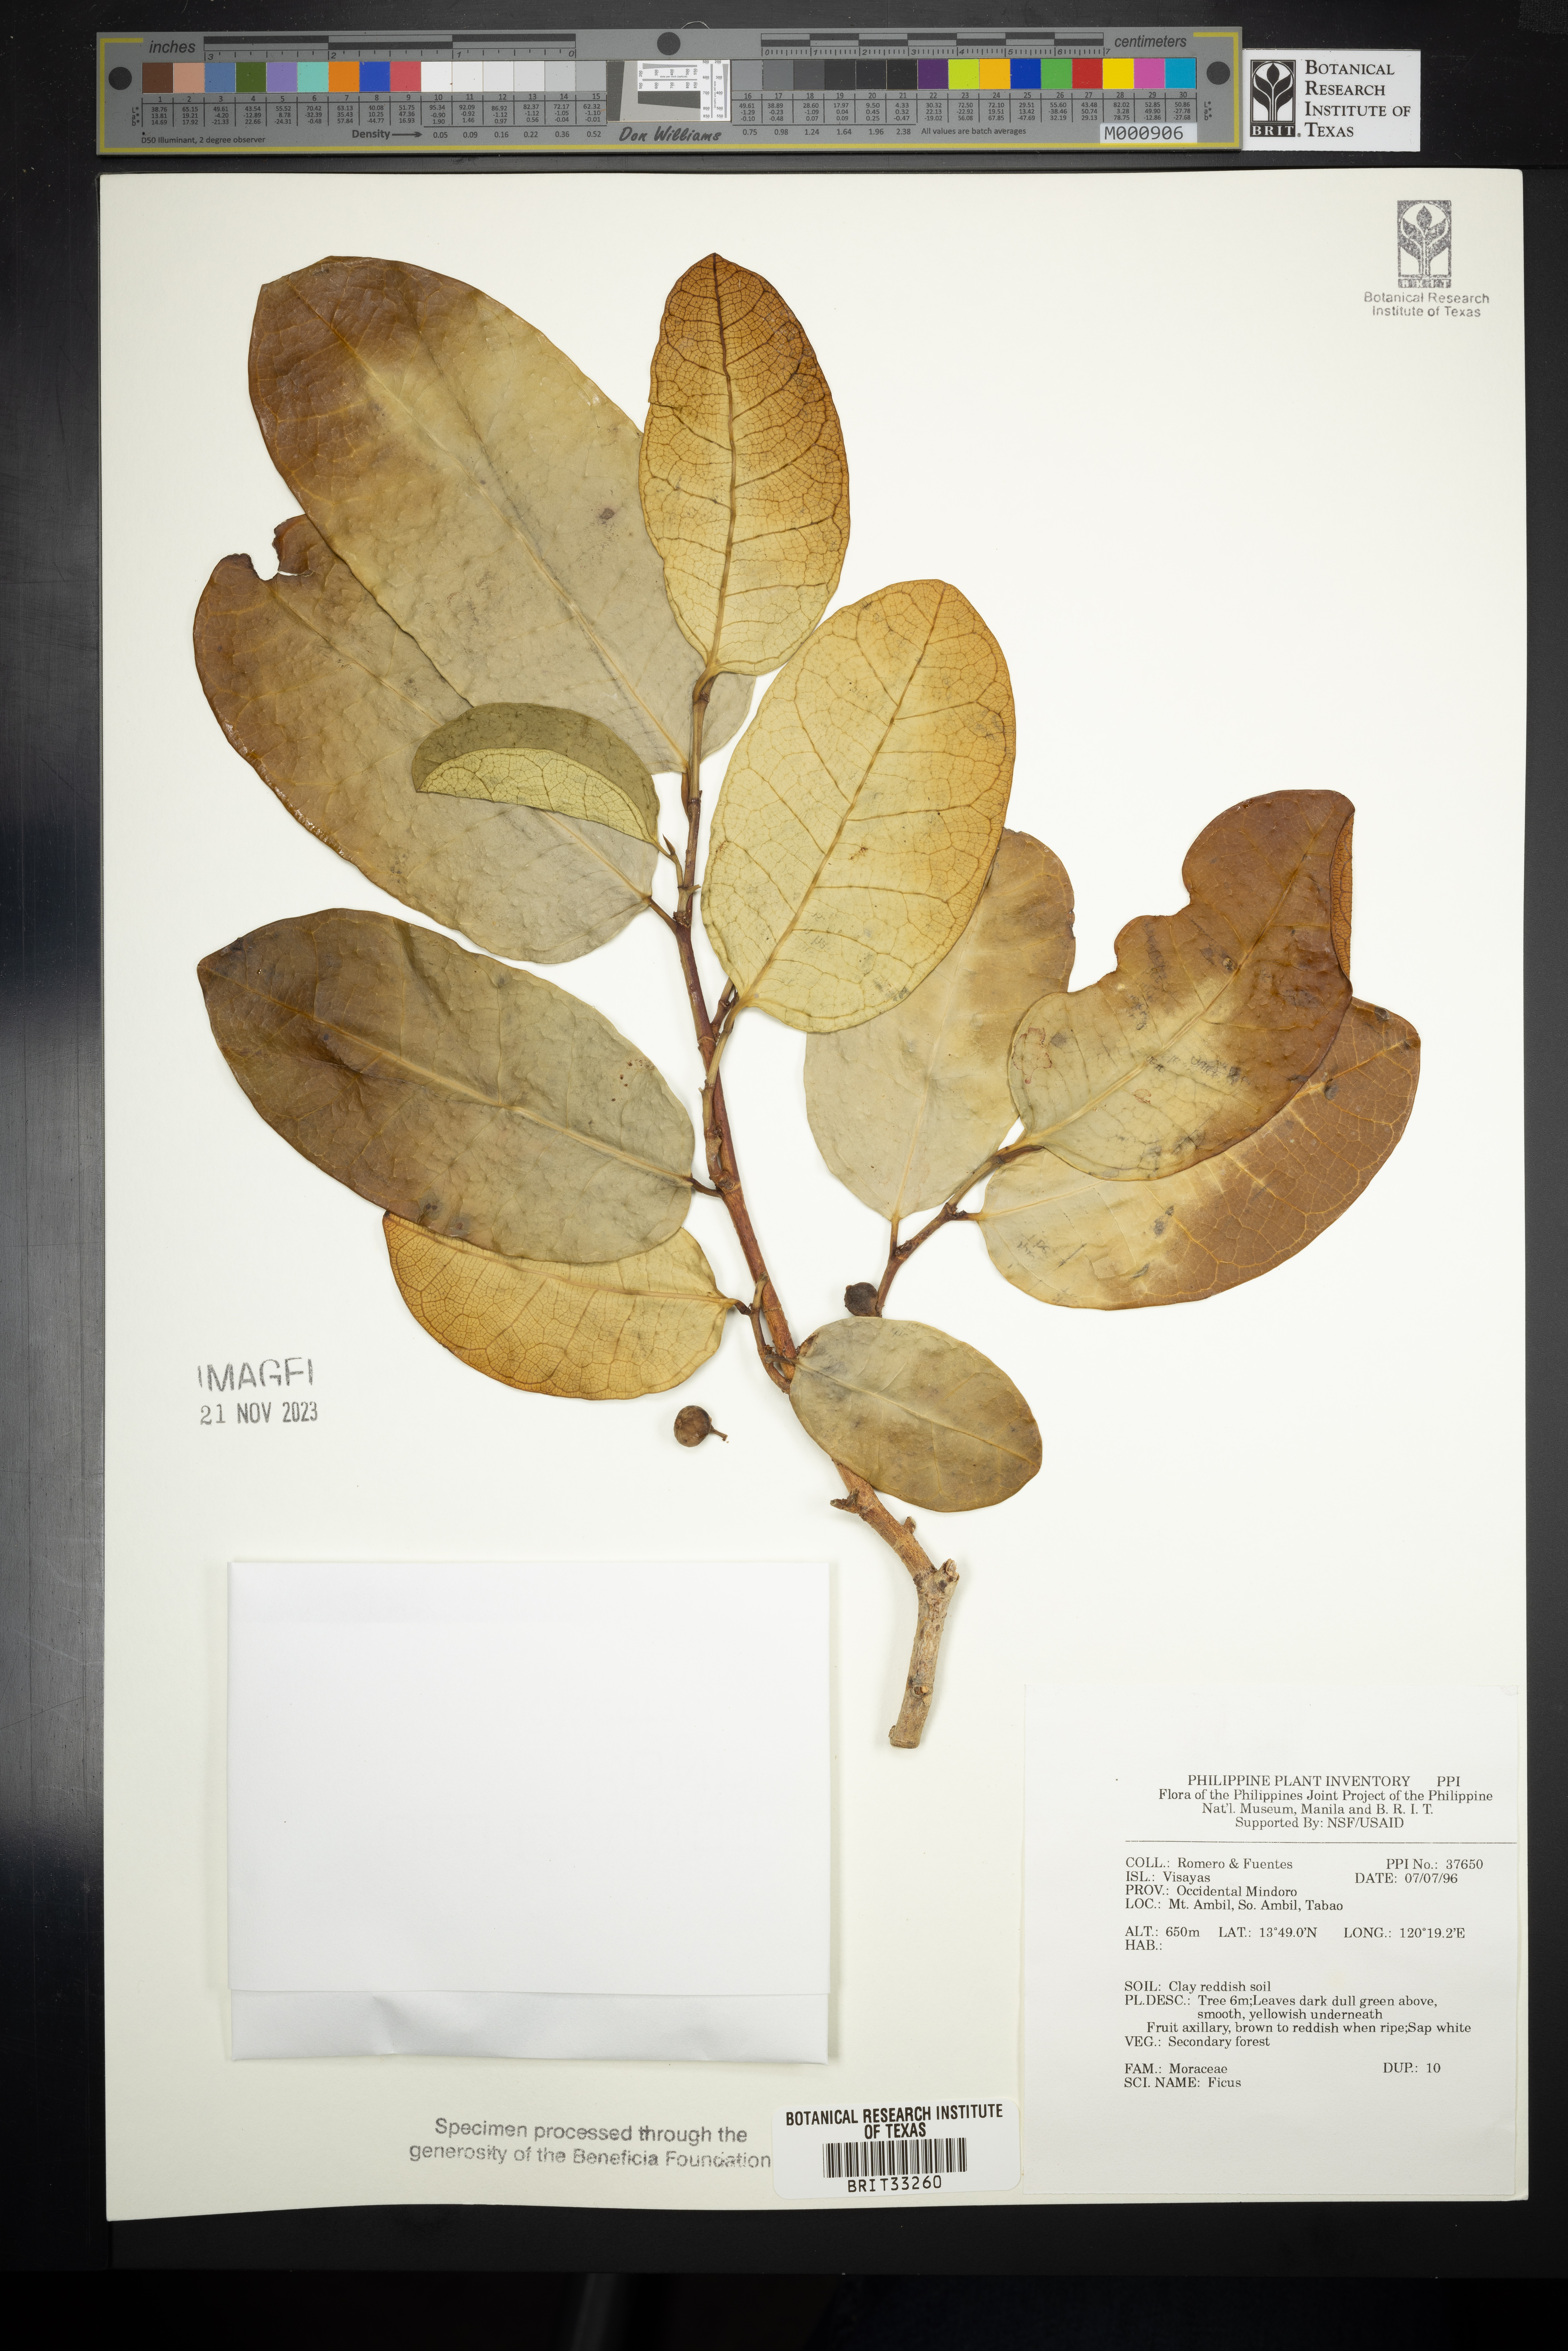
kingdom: Plantae
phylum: Tracheophyta
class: Magnoliopsida
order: Rosales
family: Moraceae
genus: Ficus
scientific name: Ficus
